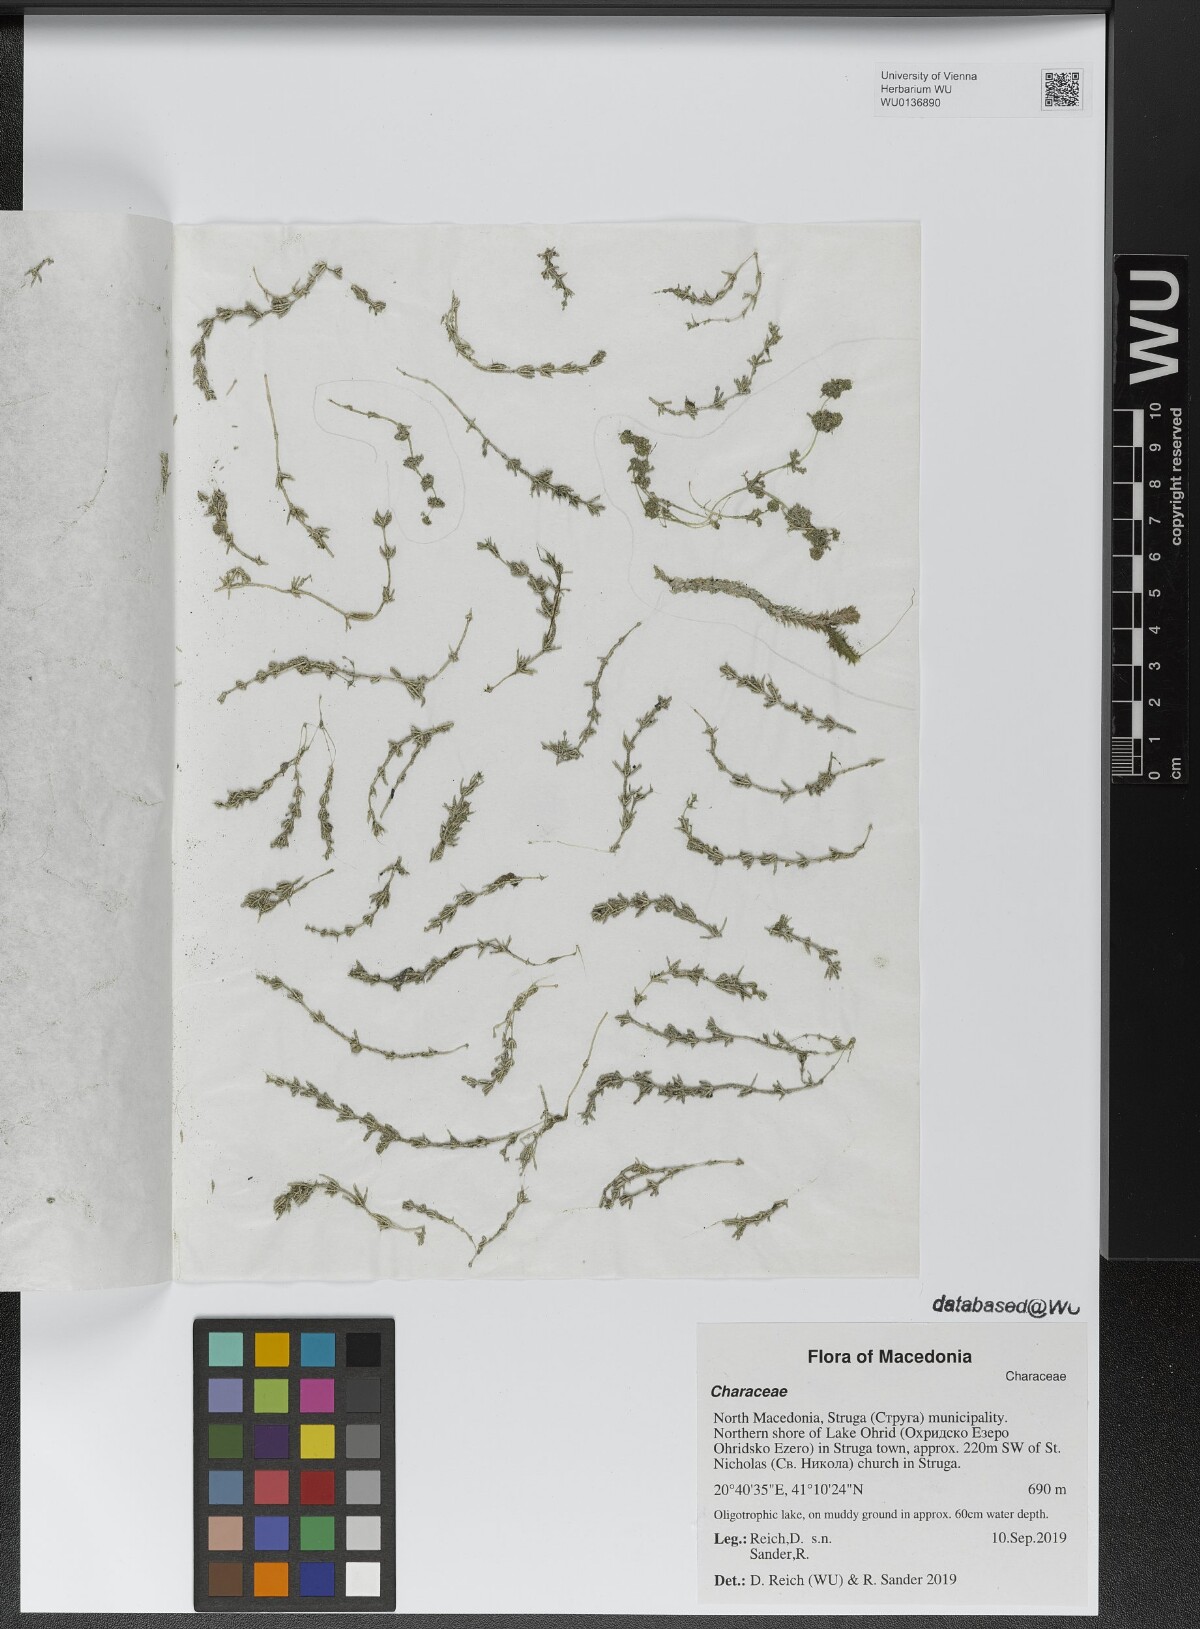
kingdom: Plantae
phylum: Charophyta
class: Charophyceae
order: Charales
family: Characeae
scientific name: Characeae
